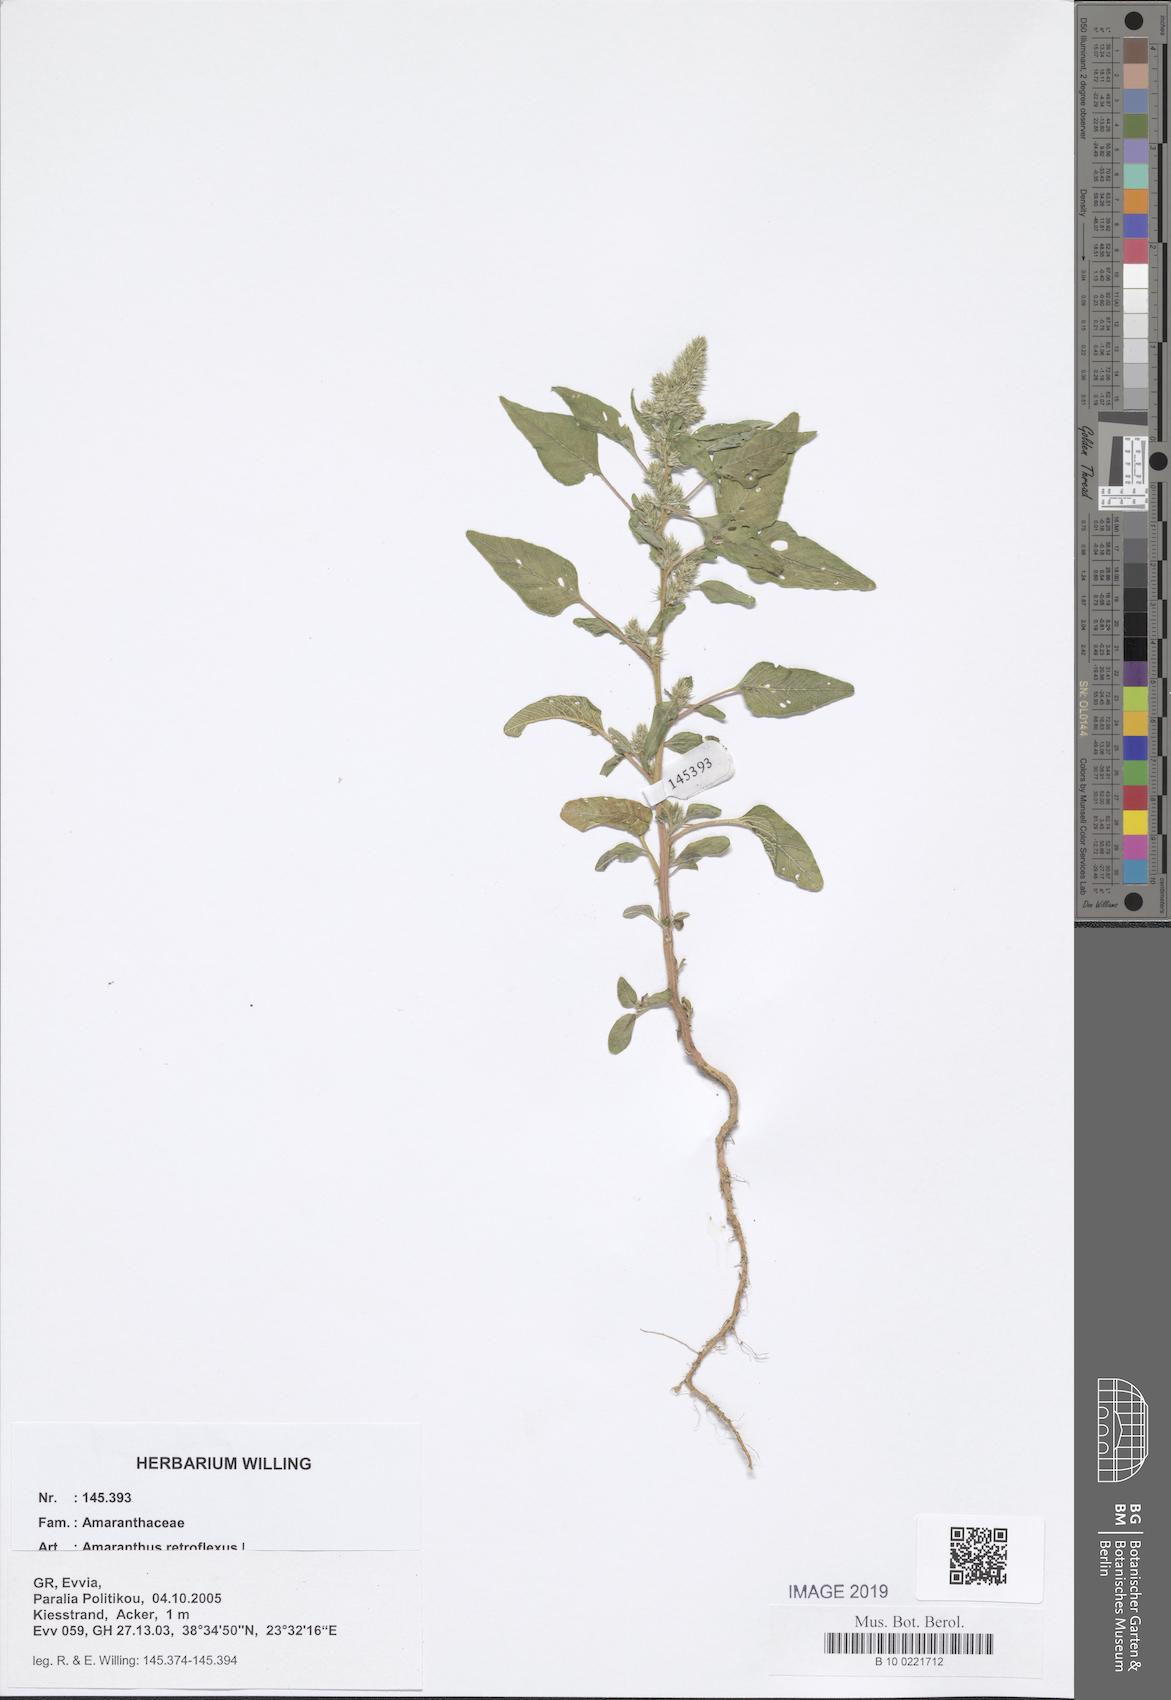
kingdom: Plantae
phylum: Tracheophyta
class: Magnoliopsida
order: Caryophyllales
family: Amaranthaceae
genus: Amaranthus
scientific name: Amaranthus retroflexus
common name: Redroot amaranth
